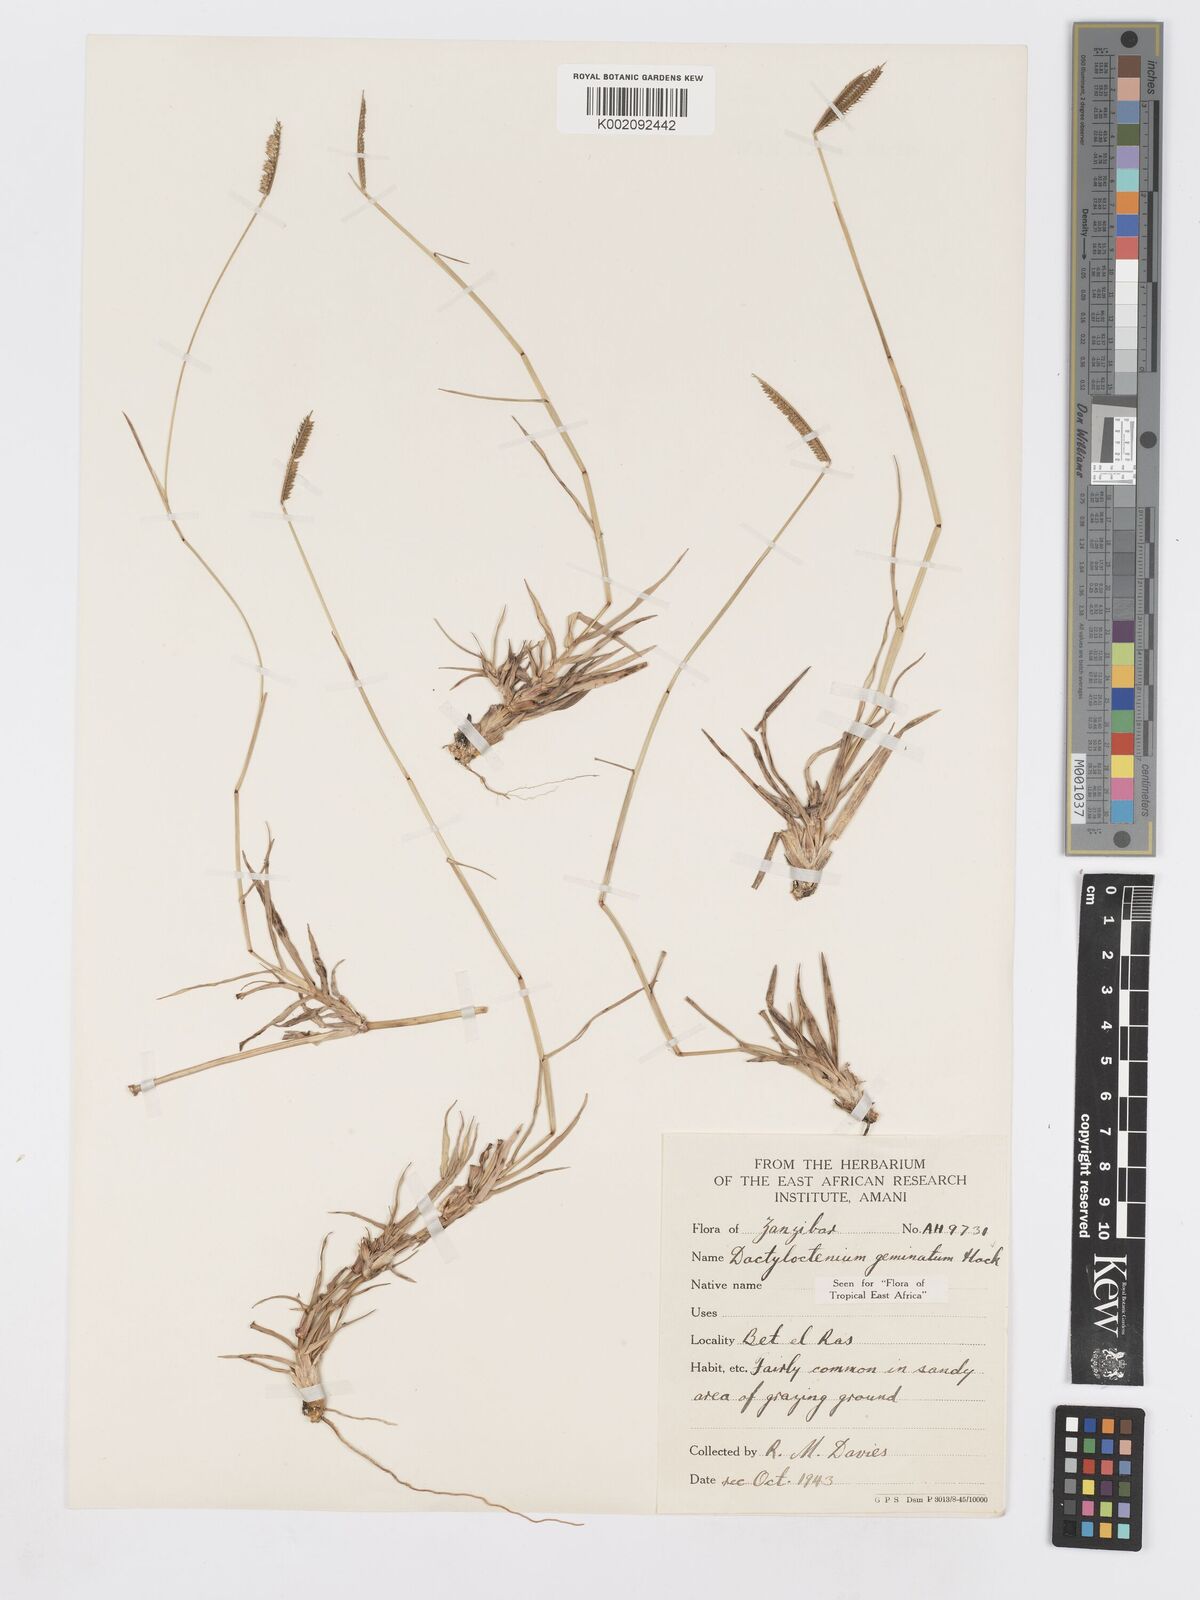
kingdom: Plantae
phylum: Tracheophyta
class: Liliopsida
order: Poales
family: Poaceae
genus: Dactyloctenium
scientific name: Dactyloctenium geminatum
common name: Crowsfoot grass
